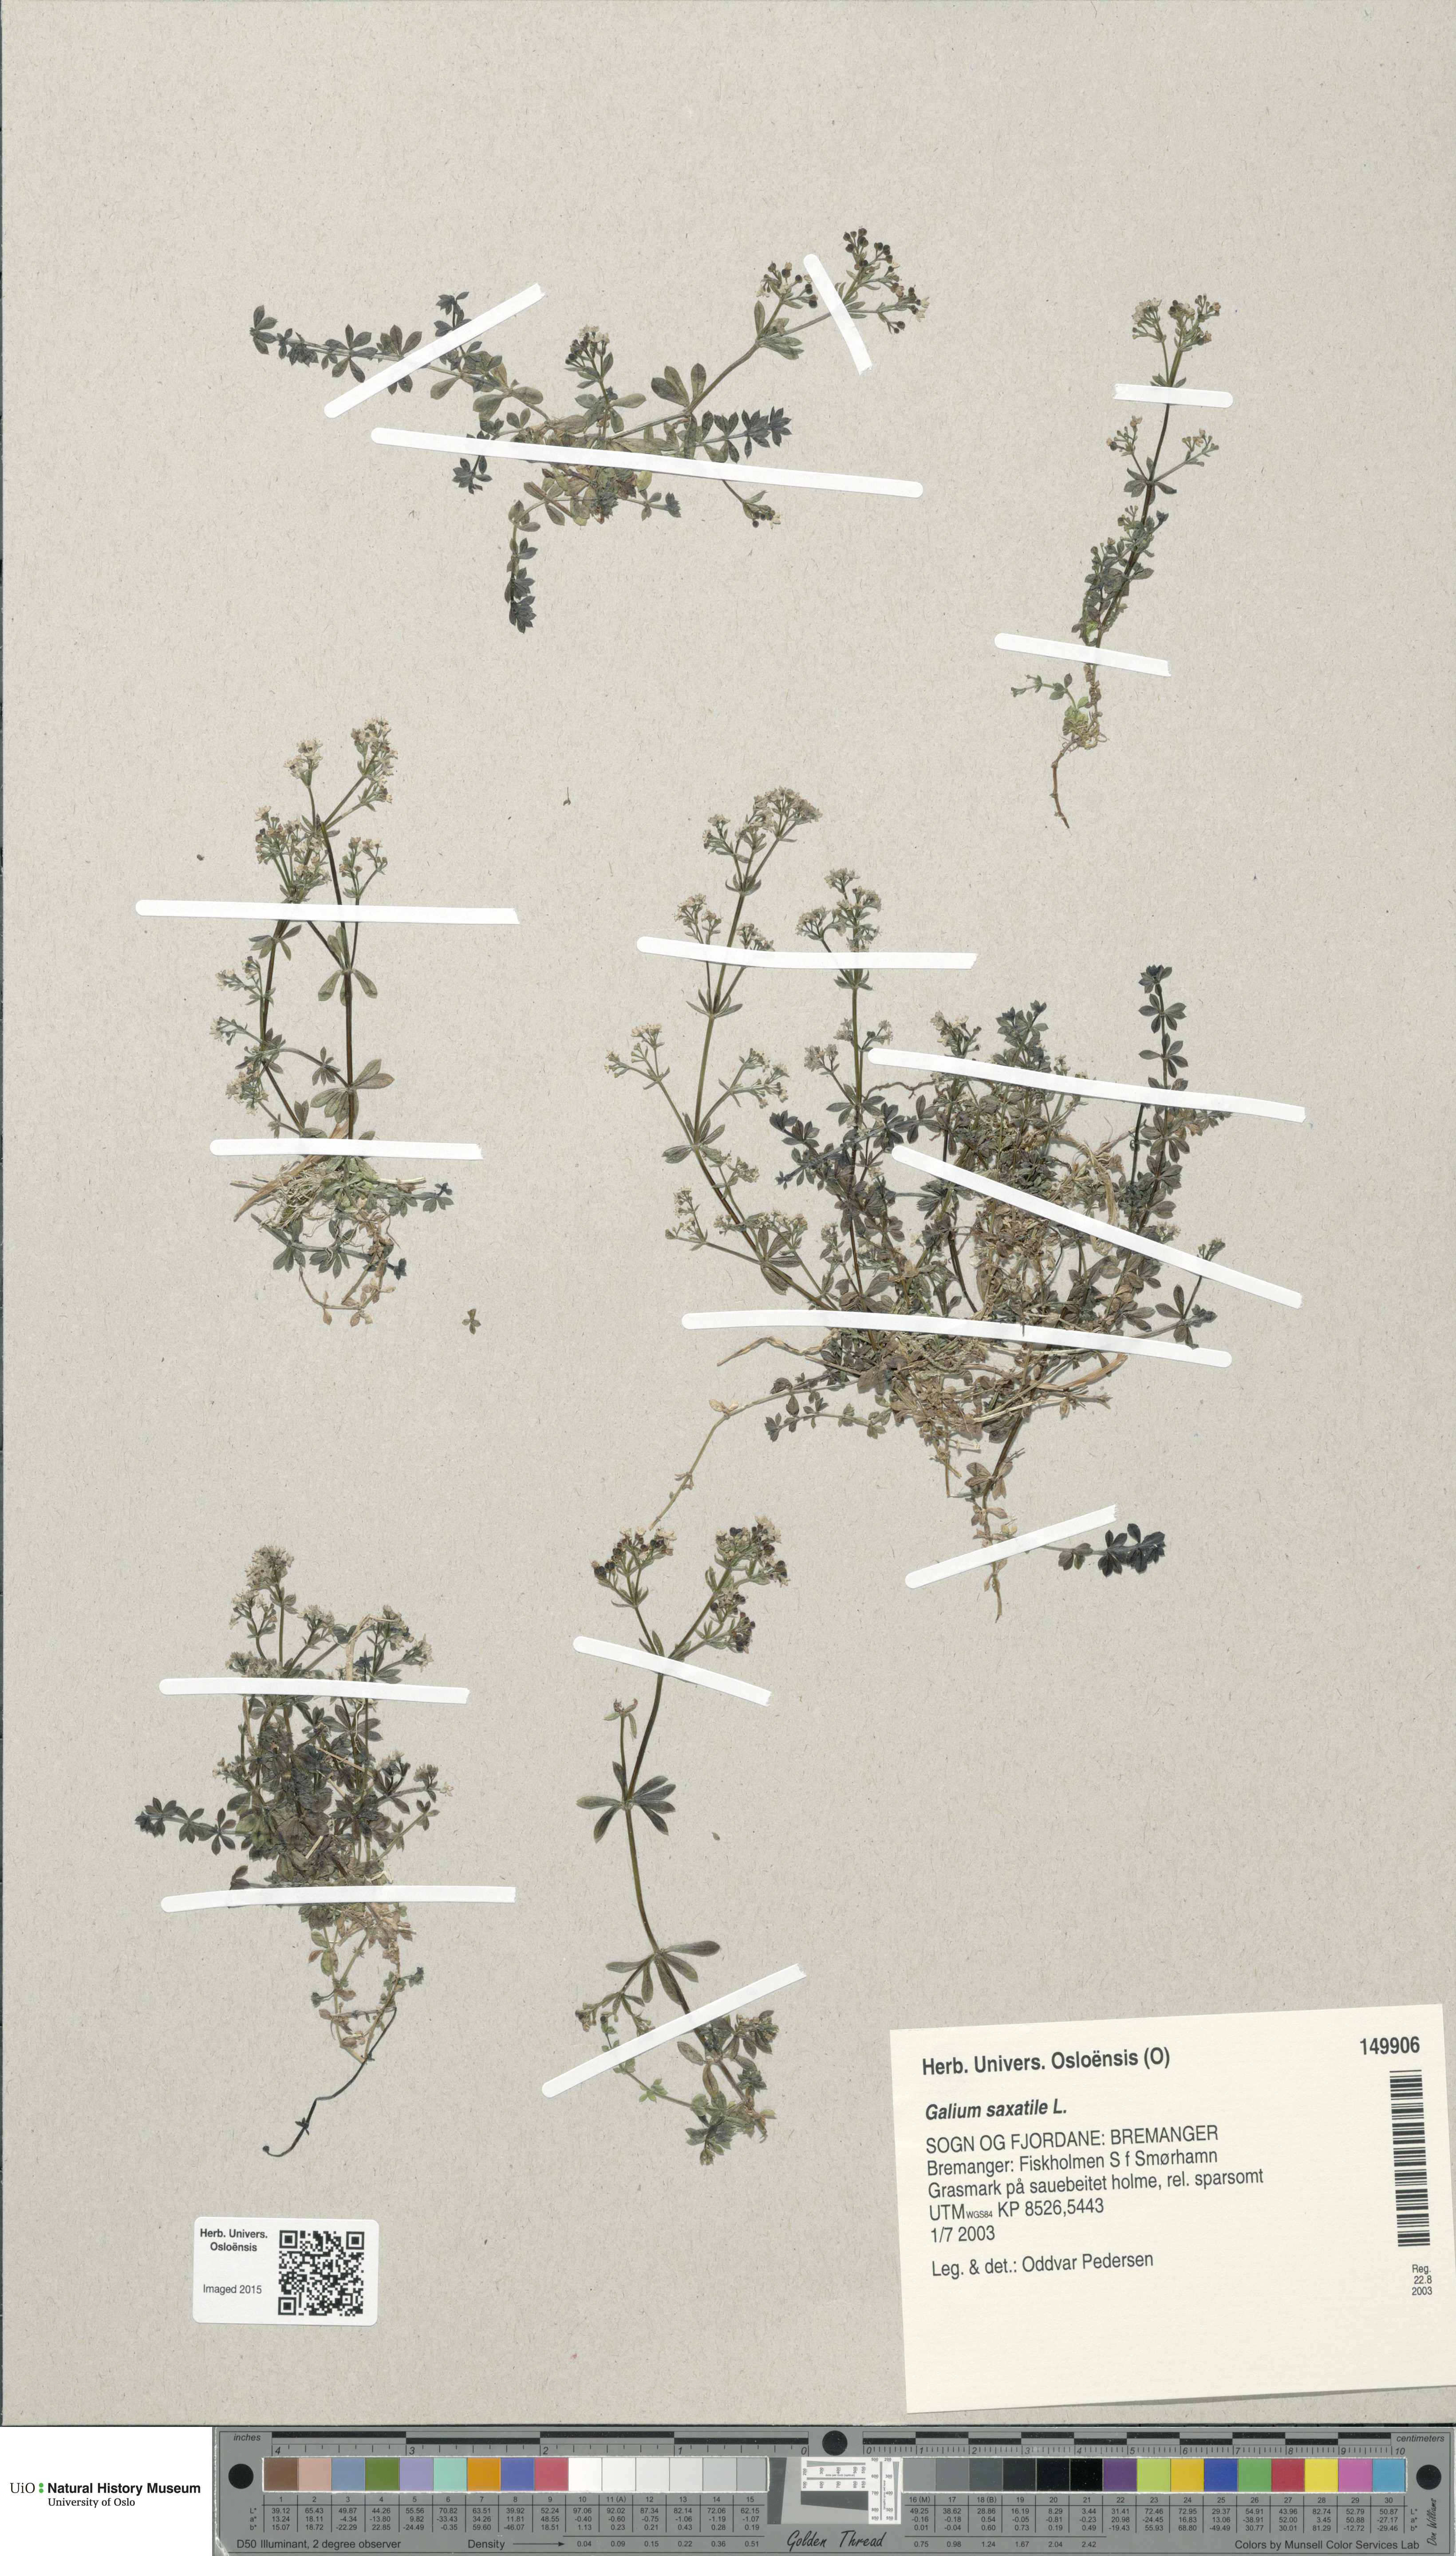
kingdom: Plantae
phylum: Tracheophyta
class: Magnoliopsida
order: Gentianales
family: Rubiaceae
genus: Galium
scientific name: Galium saxatile
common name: Heath bedstraw
